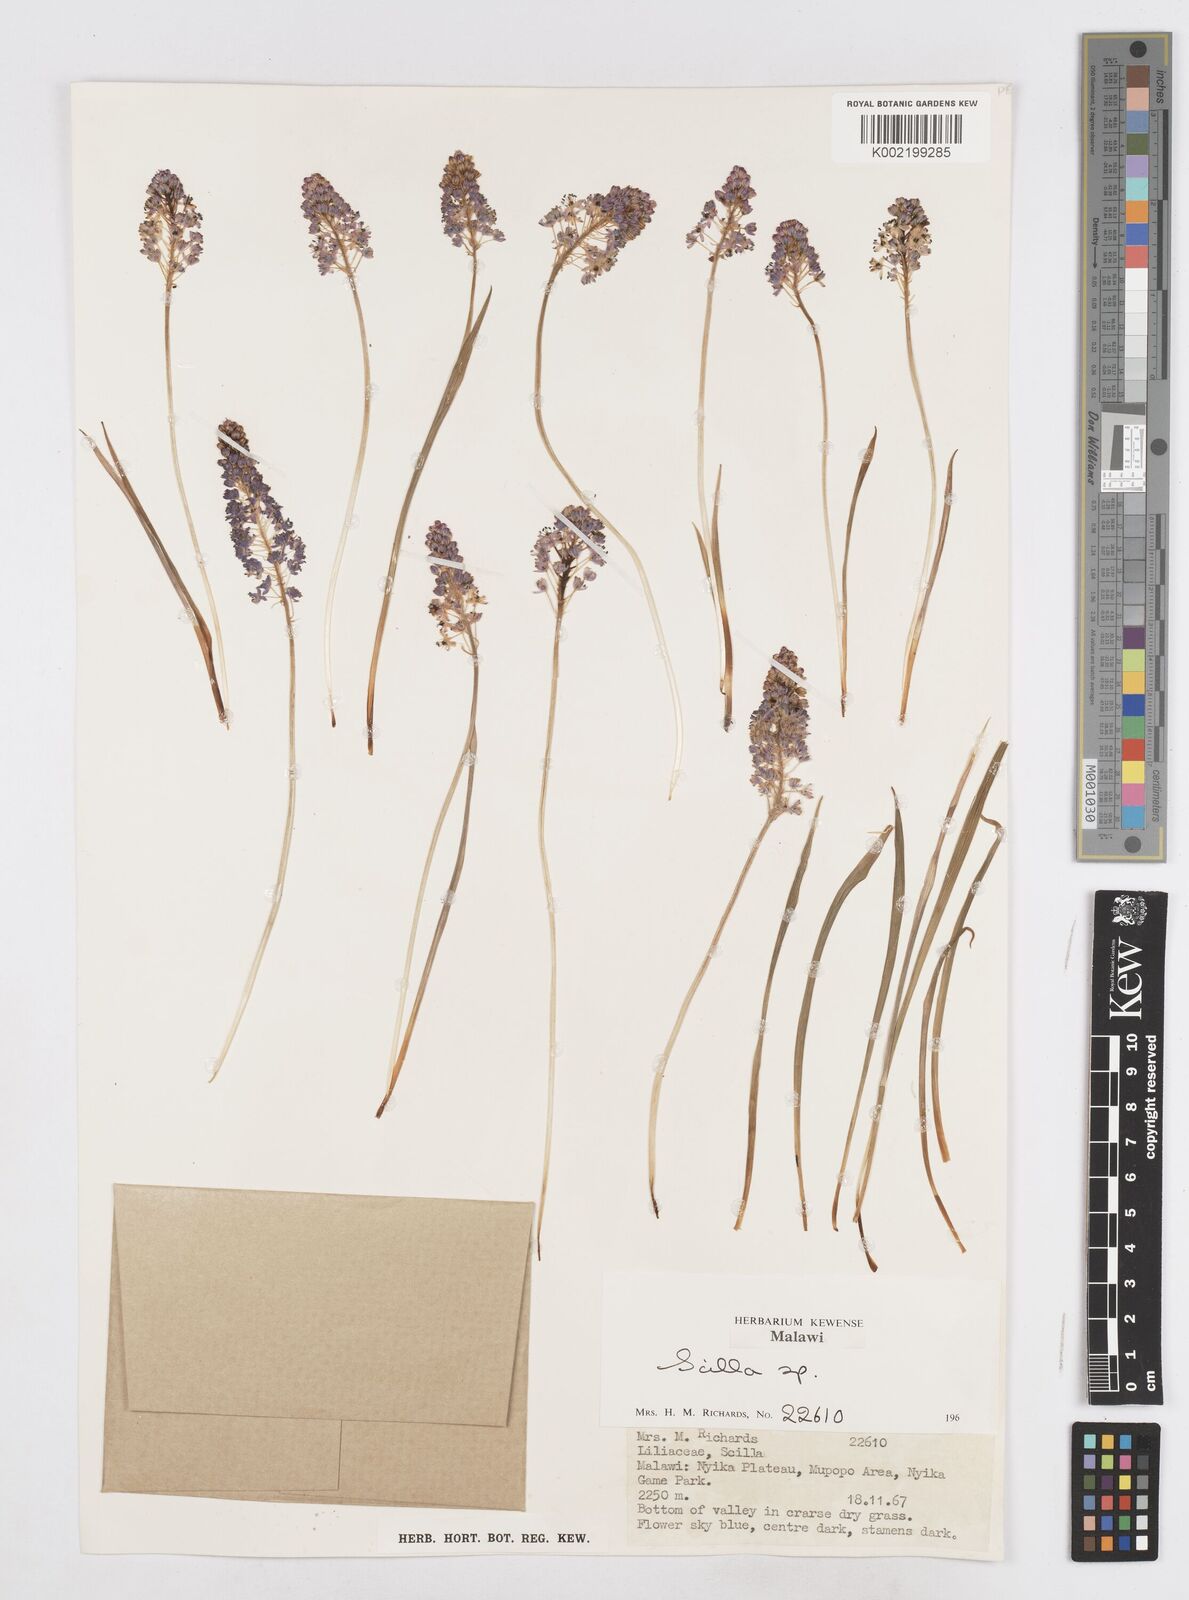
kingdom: Plantae
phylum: Tracheophyta
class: Liliopsida
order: Asparagales
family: Asparagaceae
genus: Schizocarphus
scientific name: Schizocarphus nervosus
